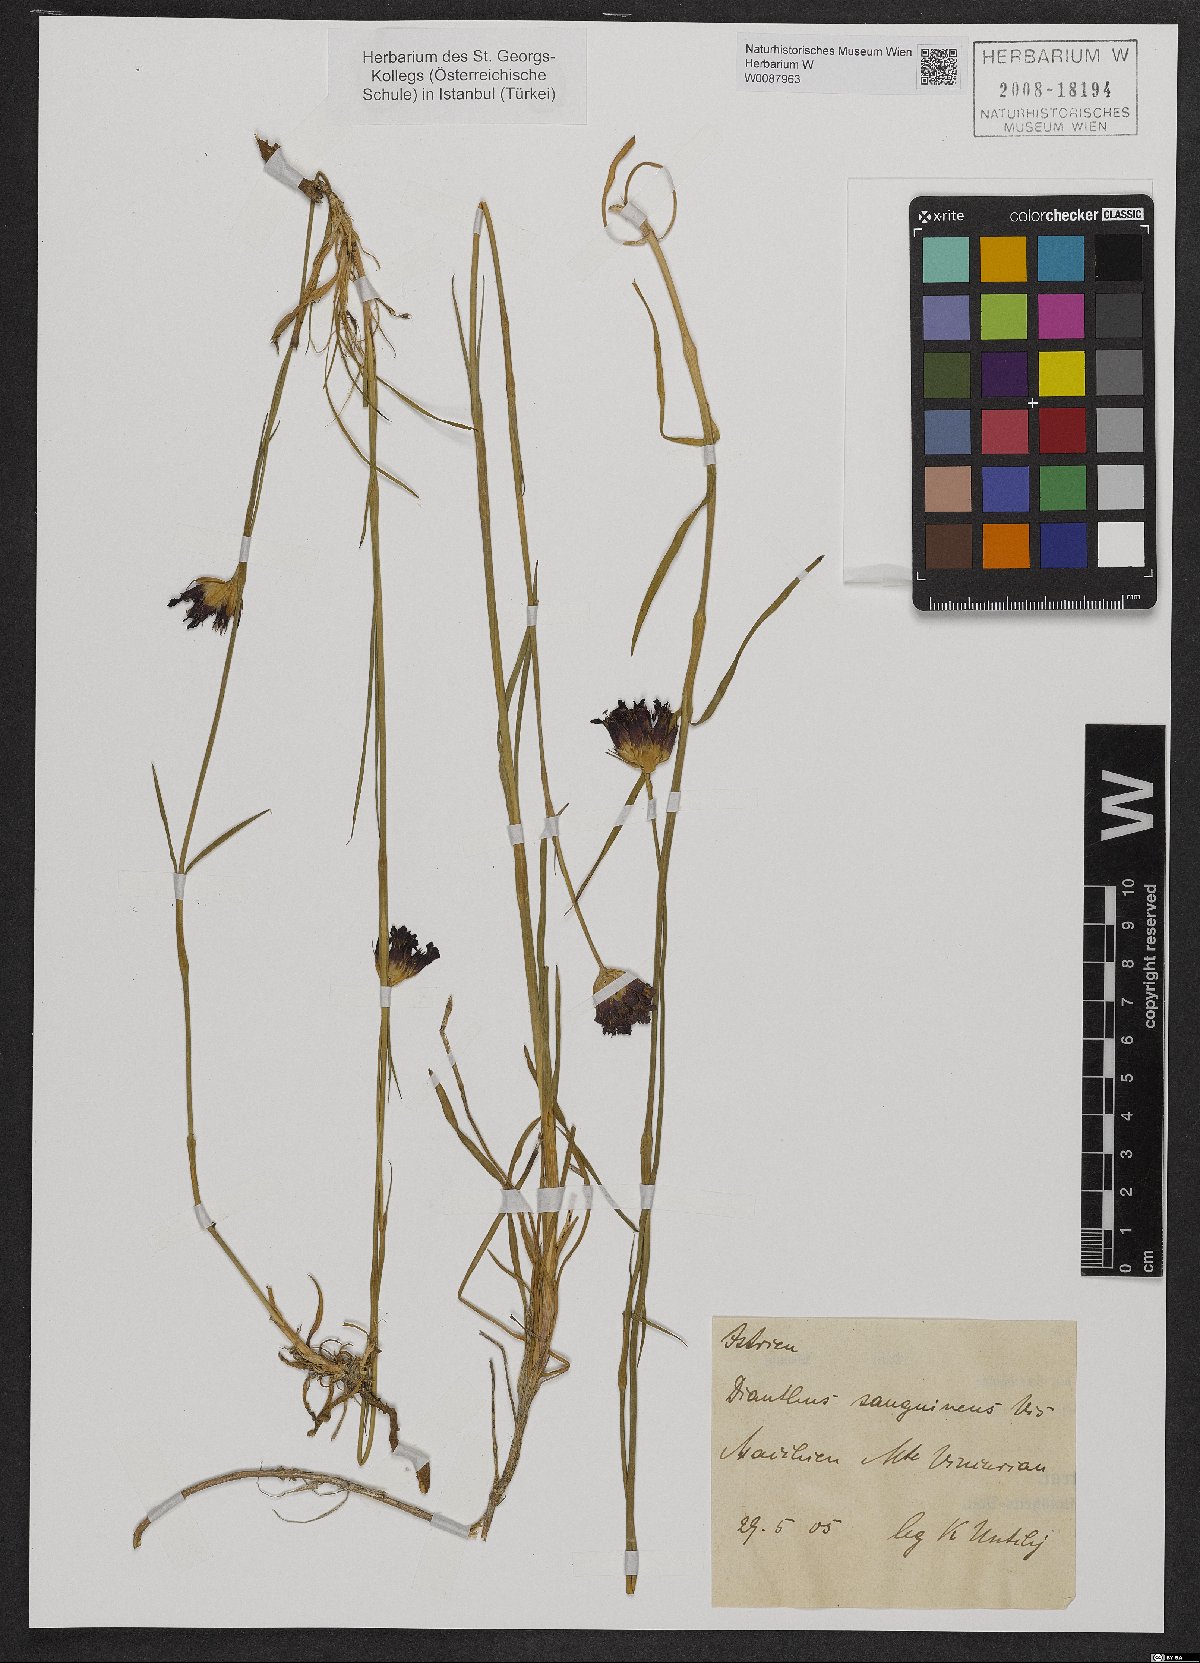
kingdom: Plantae
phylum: Tracheophyta
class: Magnoliopsida
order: Caryophyllales
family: Caryophyllaceae
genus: Dianthus
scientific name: Dianthus carthusianorum
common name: Carthusian pink
